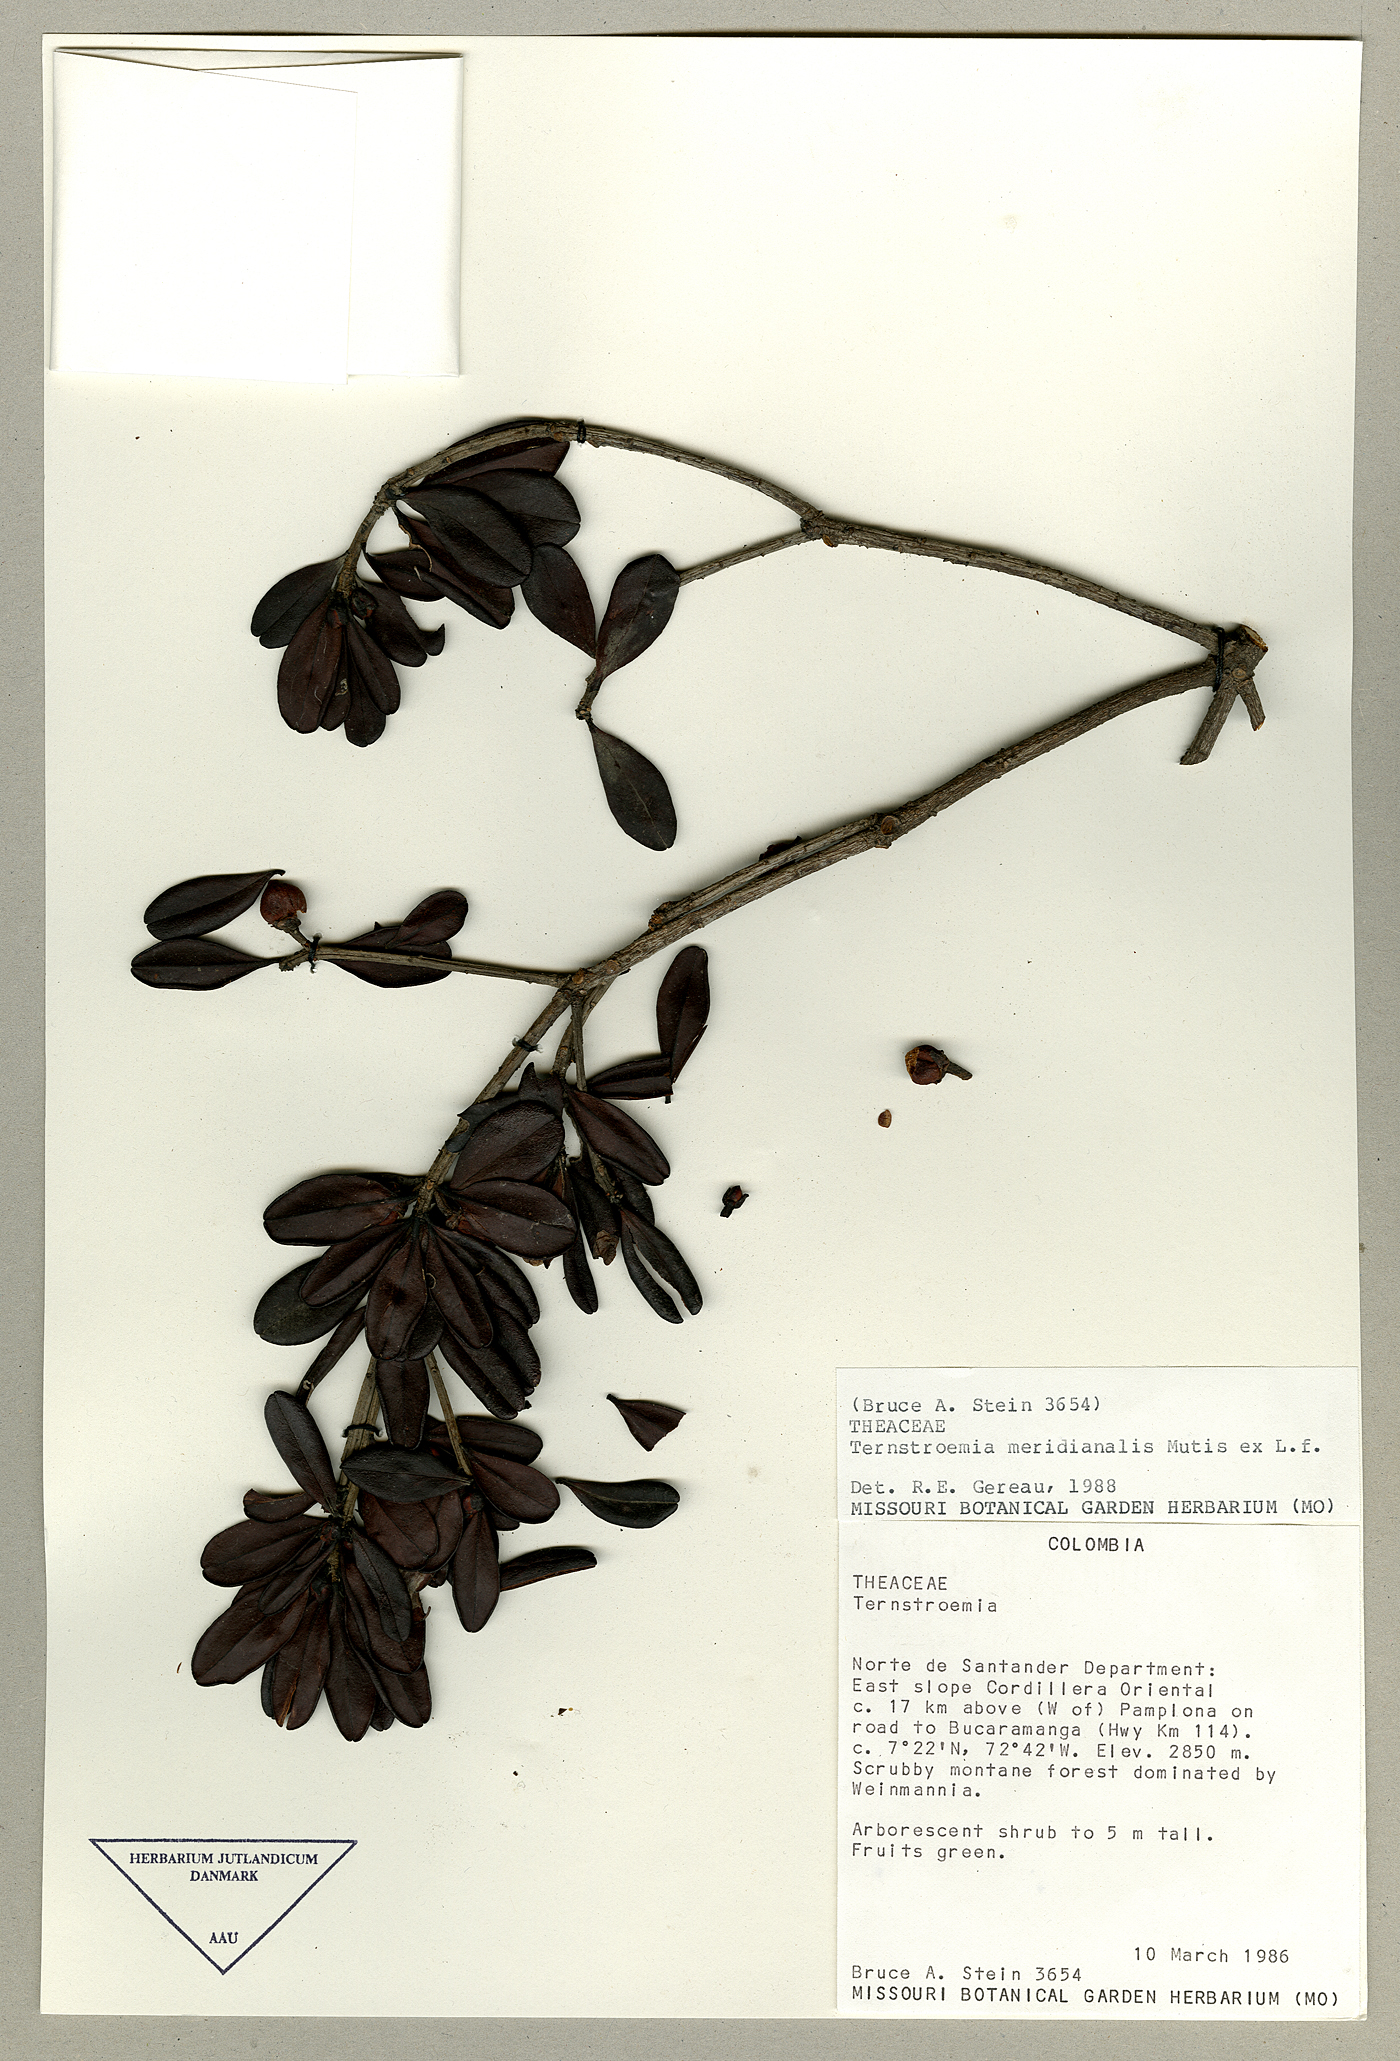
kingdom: Plantae
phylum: Tracheophyta
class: Magnoliopsida
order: Ericales
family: Pentaphylacaceae
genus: Ternstroemia
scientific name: Ternstroemia meridionalis
